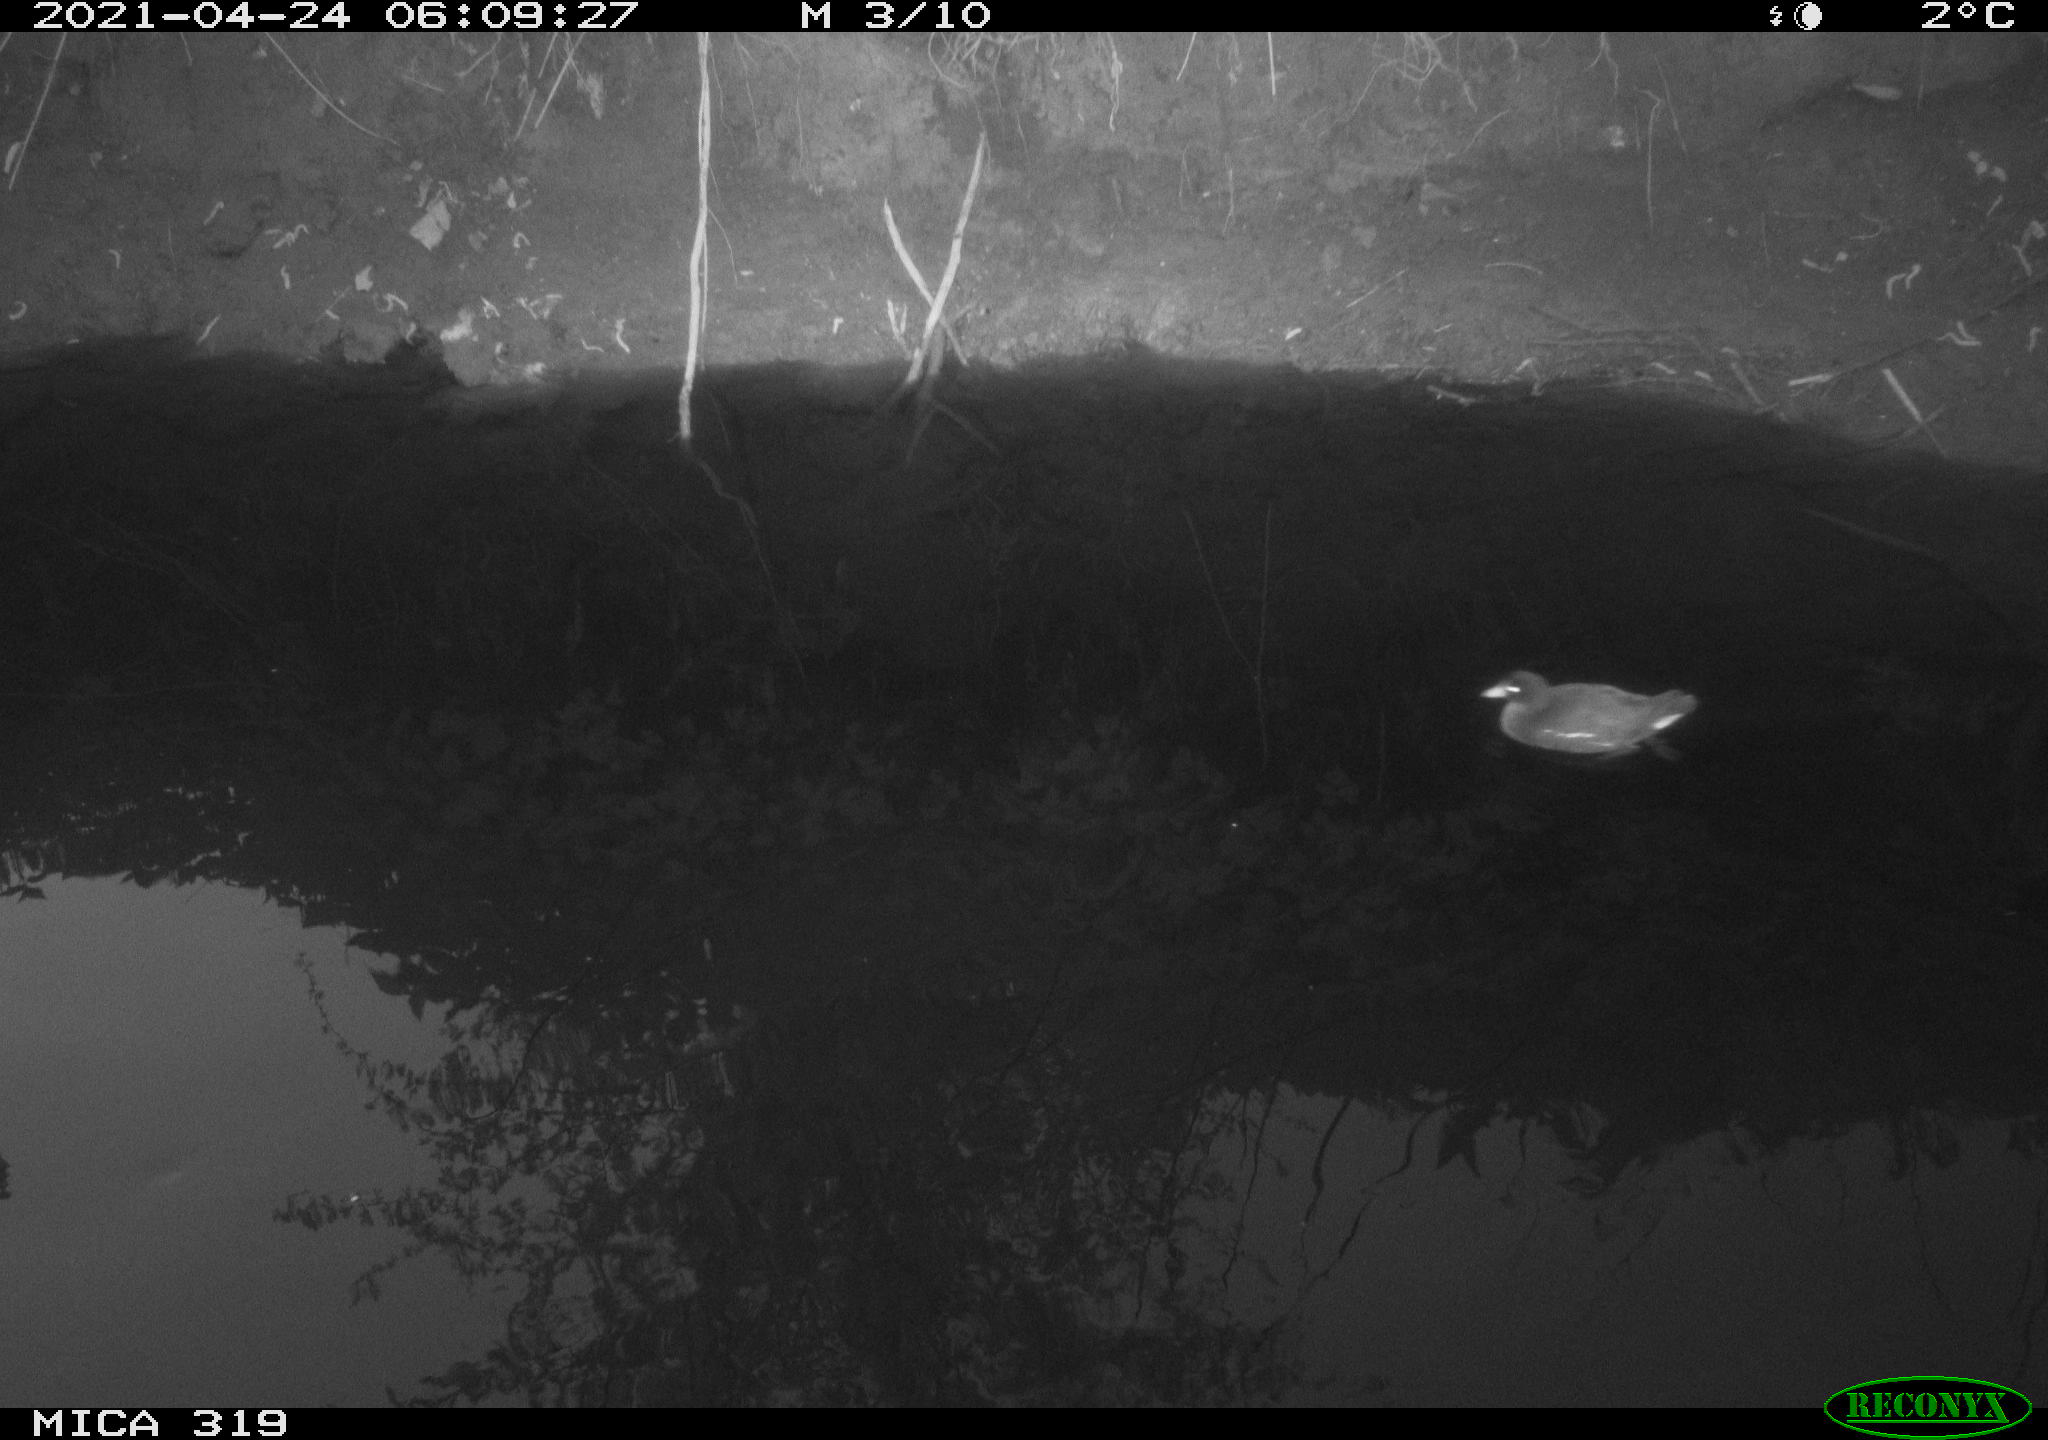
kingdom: Animalia
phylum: Chordata
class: Aves
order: Gruiformes
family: Rallidae
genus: Gallinula
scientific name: Gallinula chloropus
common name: Common moorhen
